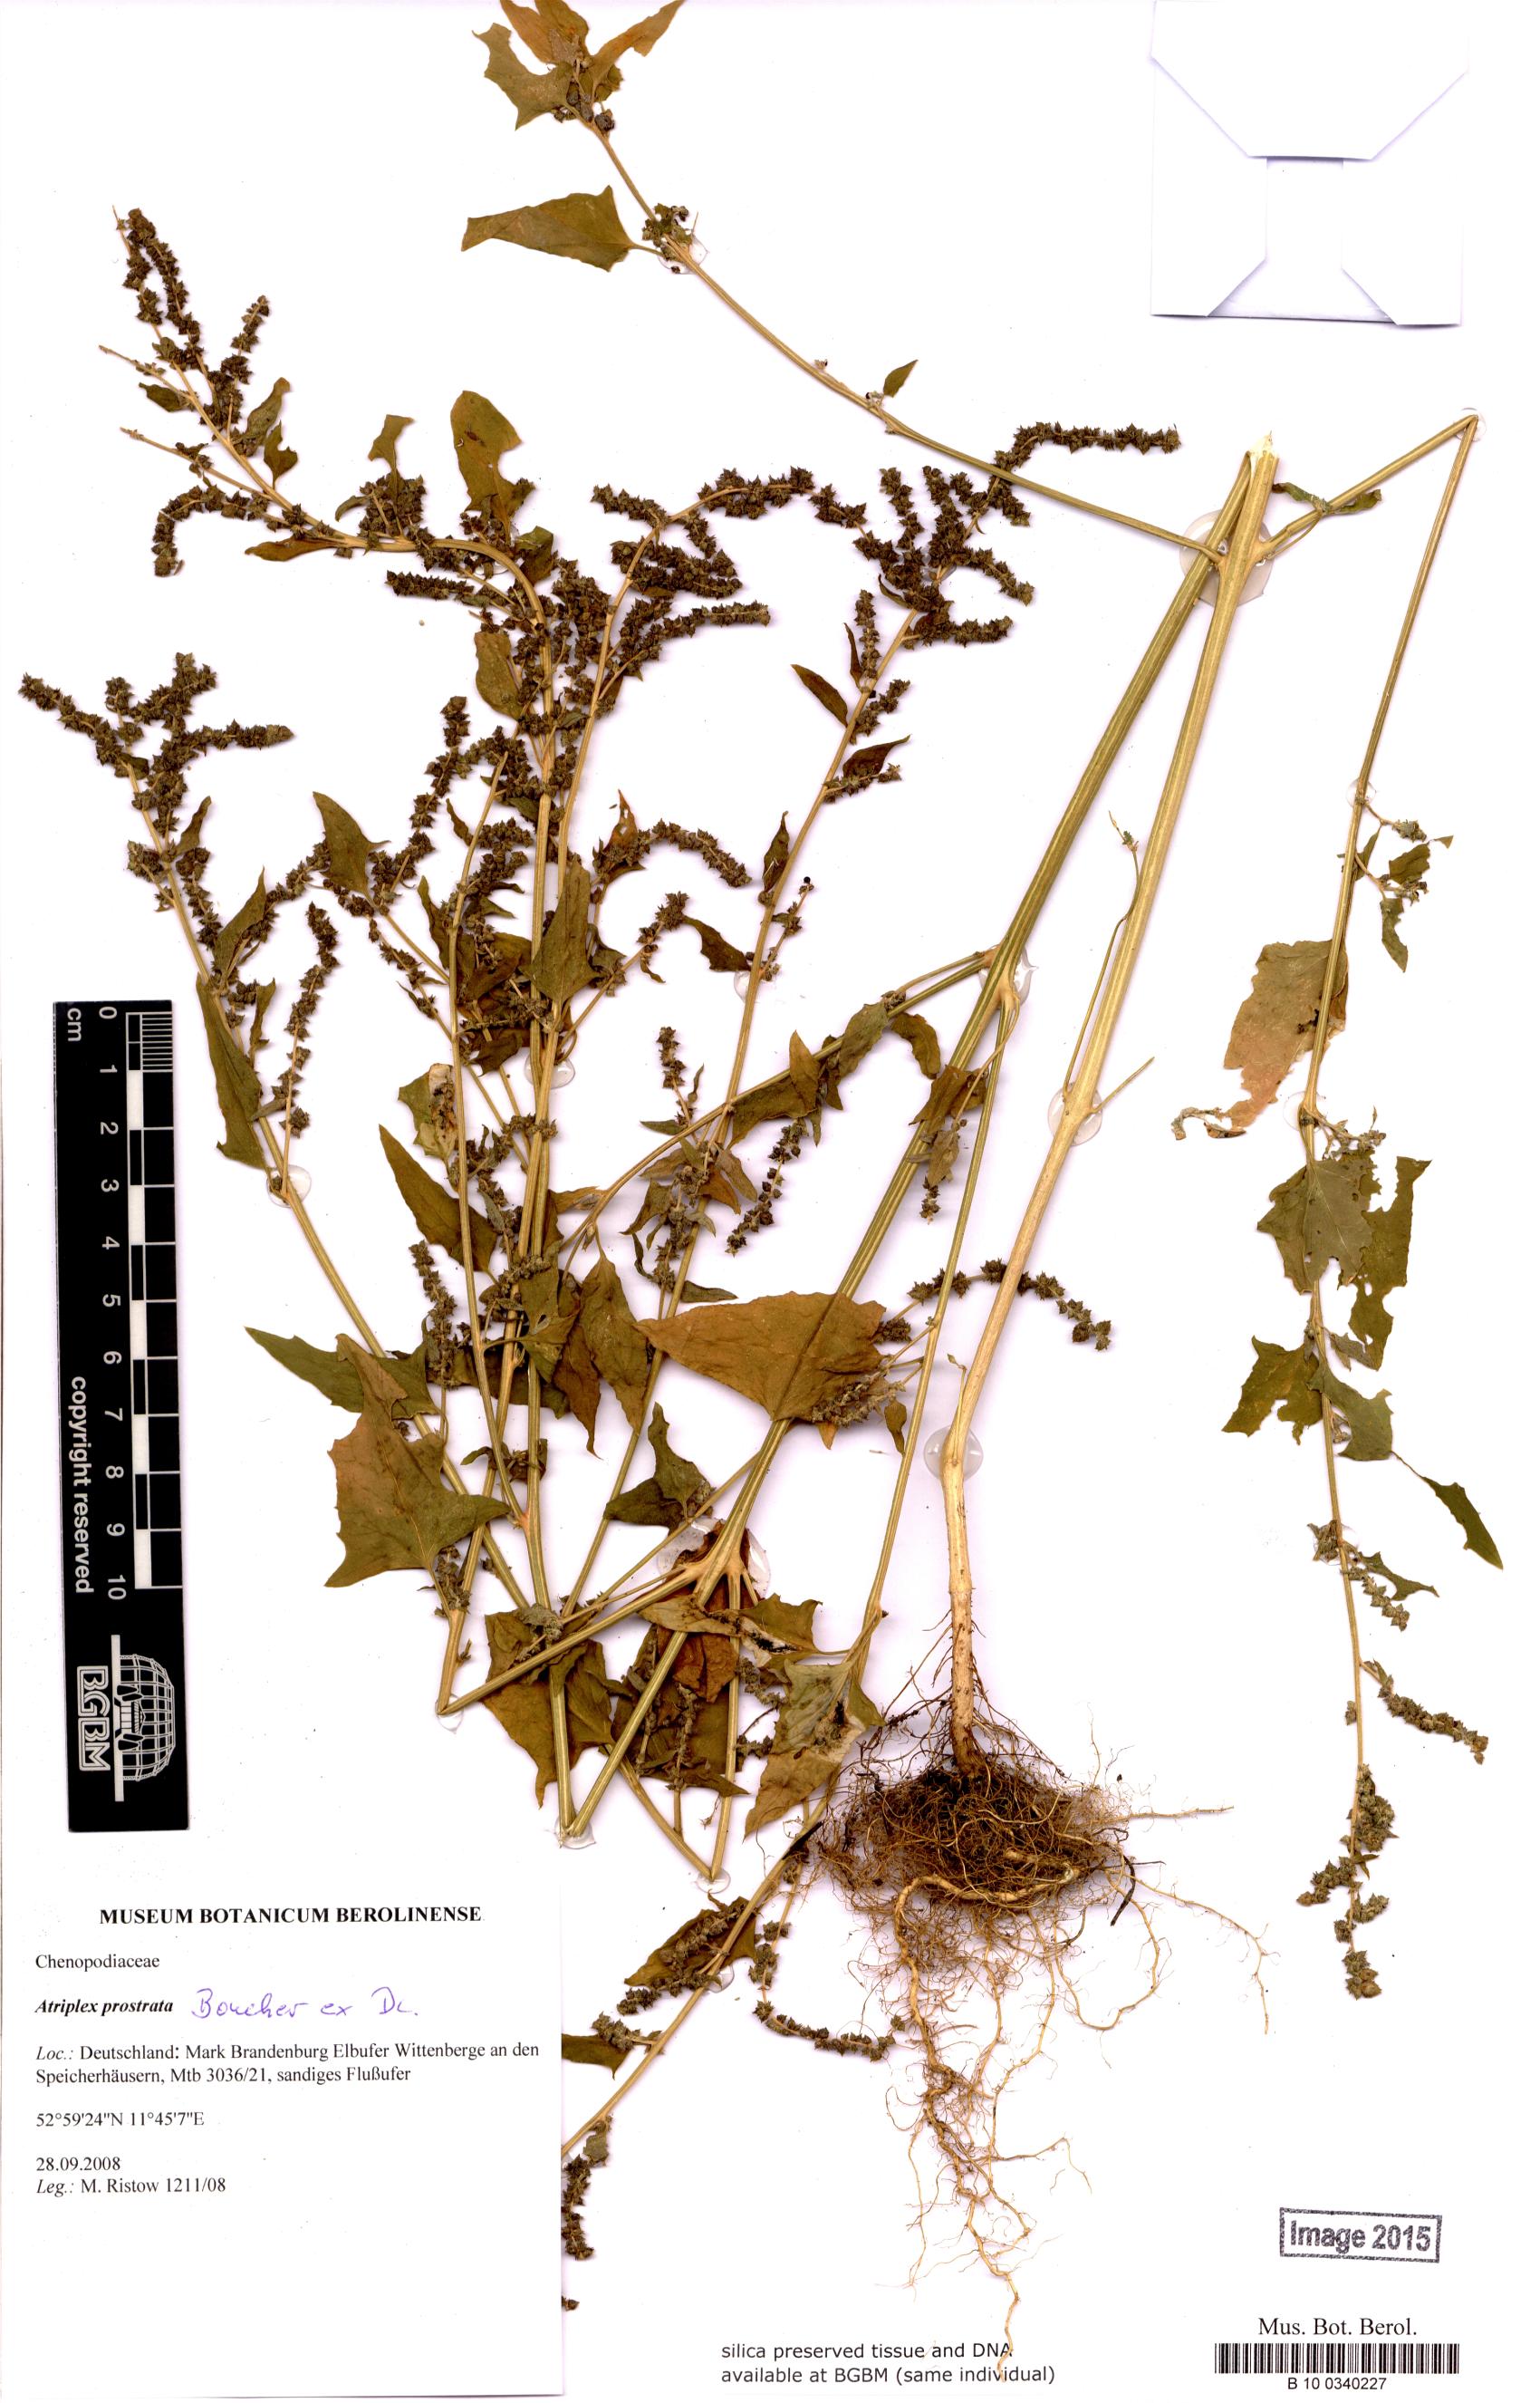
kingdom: Plantae
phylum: Tracheophyta
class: Magnoliopsida
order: Caryophyllales
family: Amaranthaceae
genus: Atriplex
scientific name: Atriplex prostrata
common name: Spear-leaved orache
